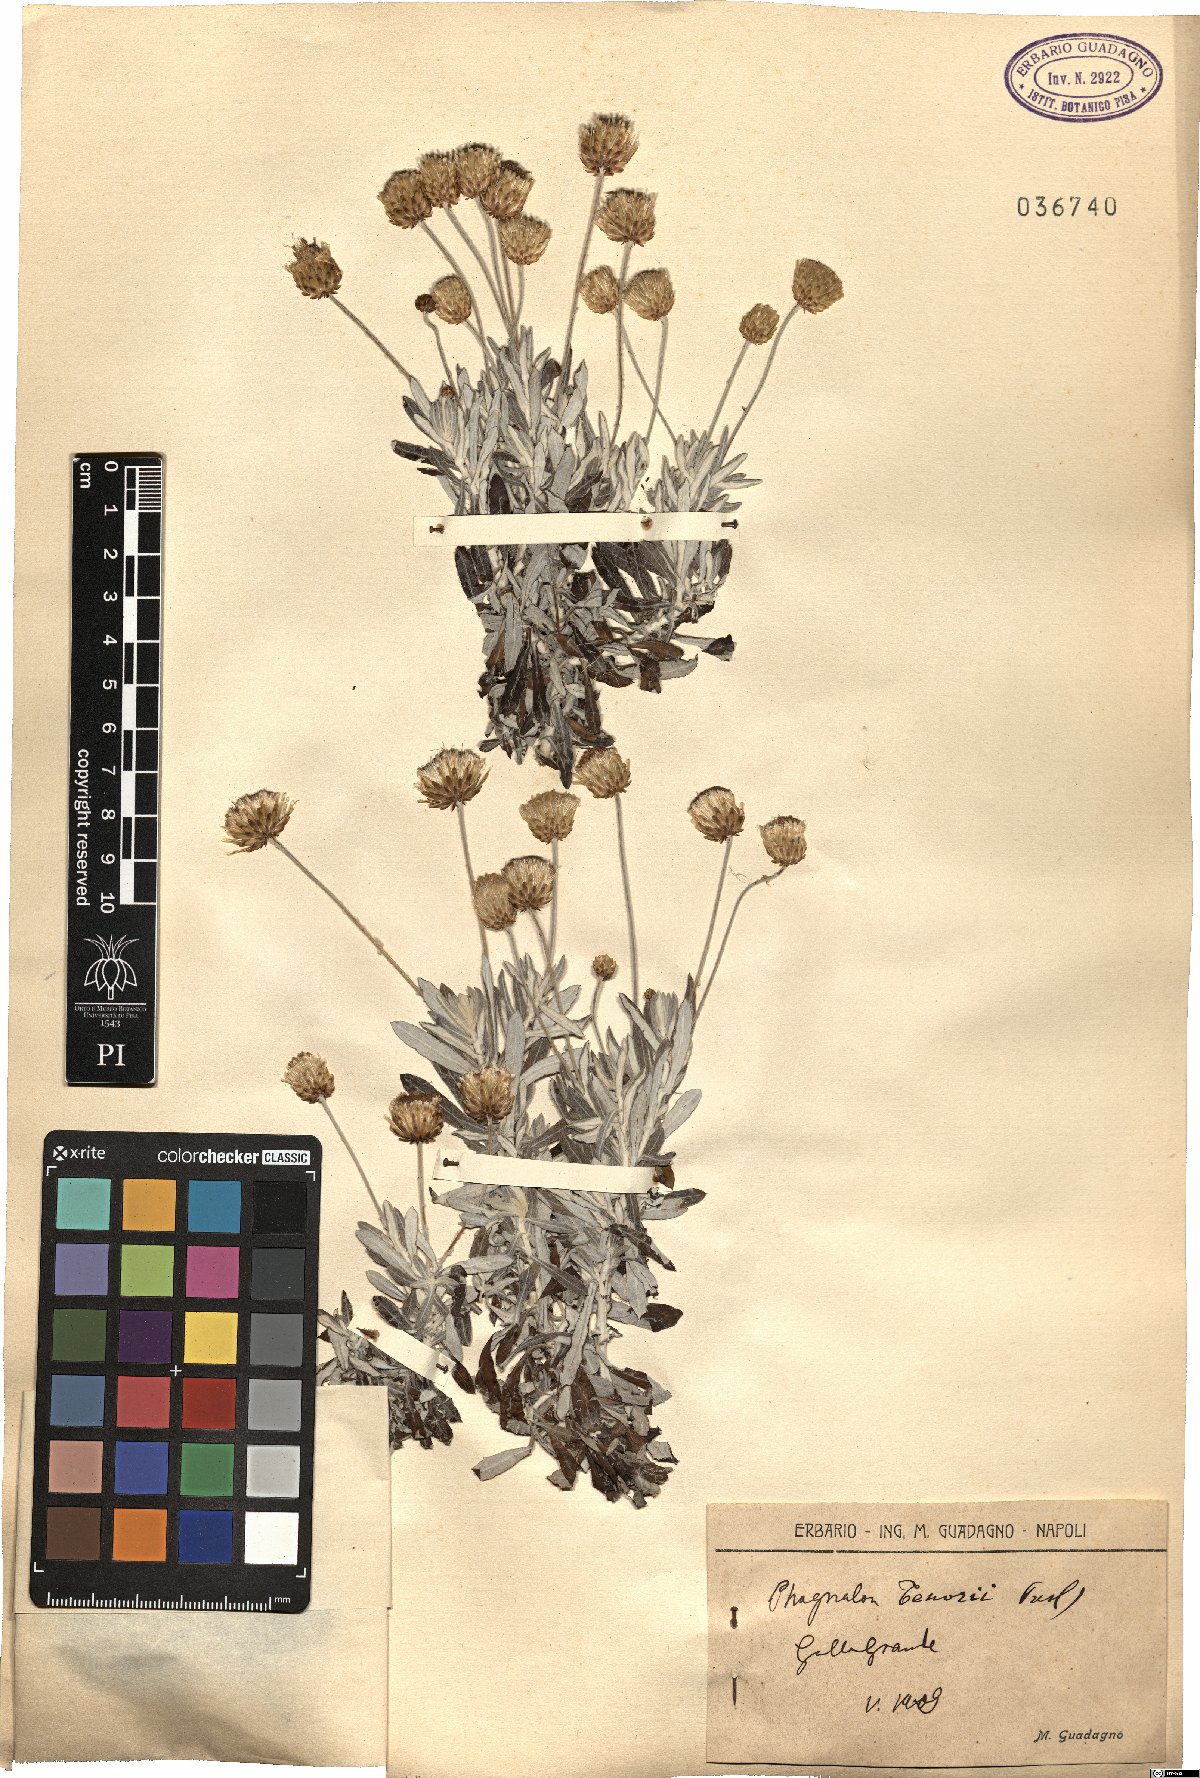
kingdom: Plantae
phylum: Tracheophyta
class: Magnoliopsida
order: Asterales
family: Asteraceae
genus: Phagnalon
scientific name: Phagnalon graecum
